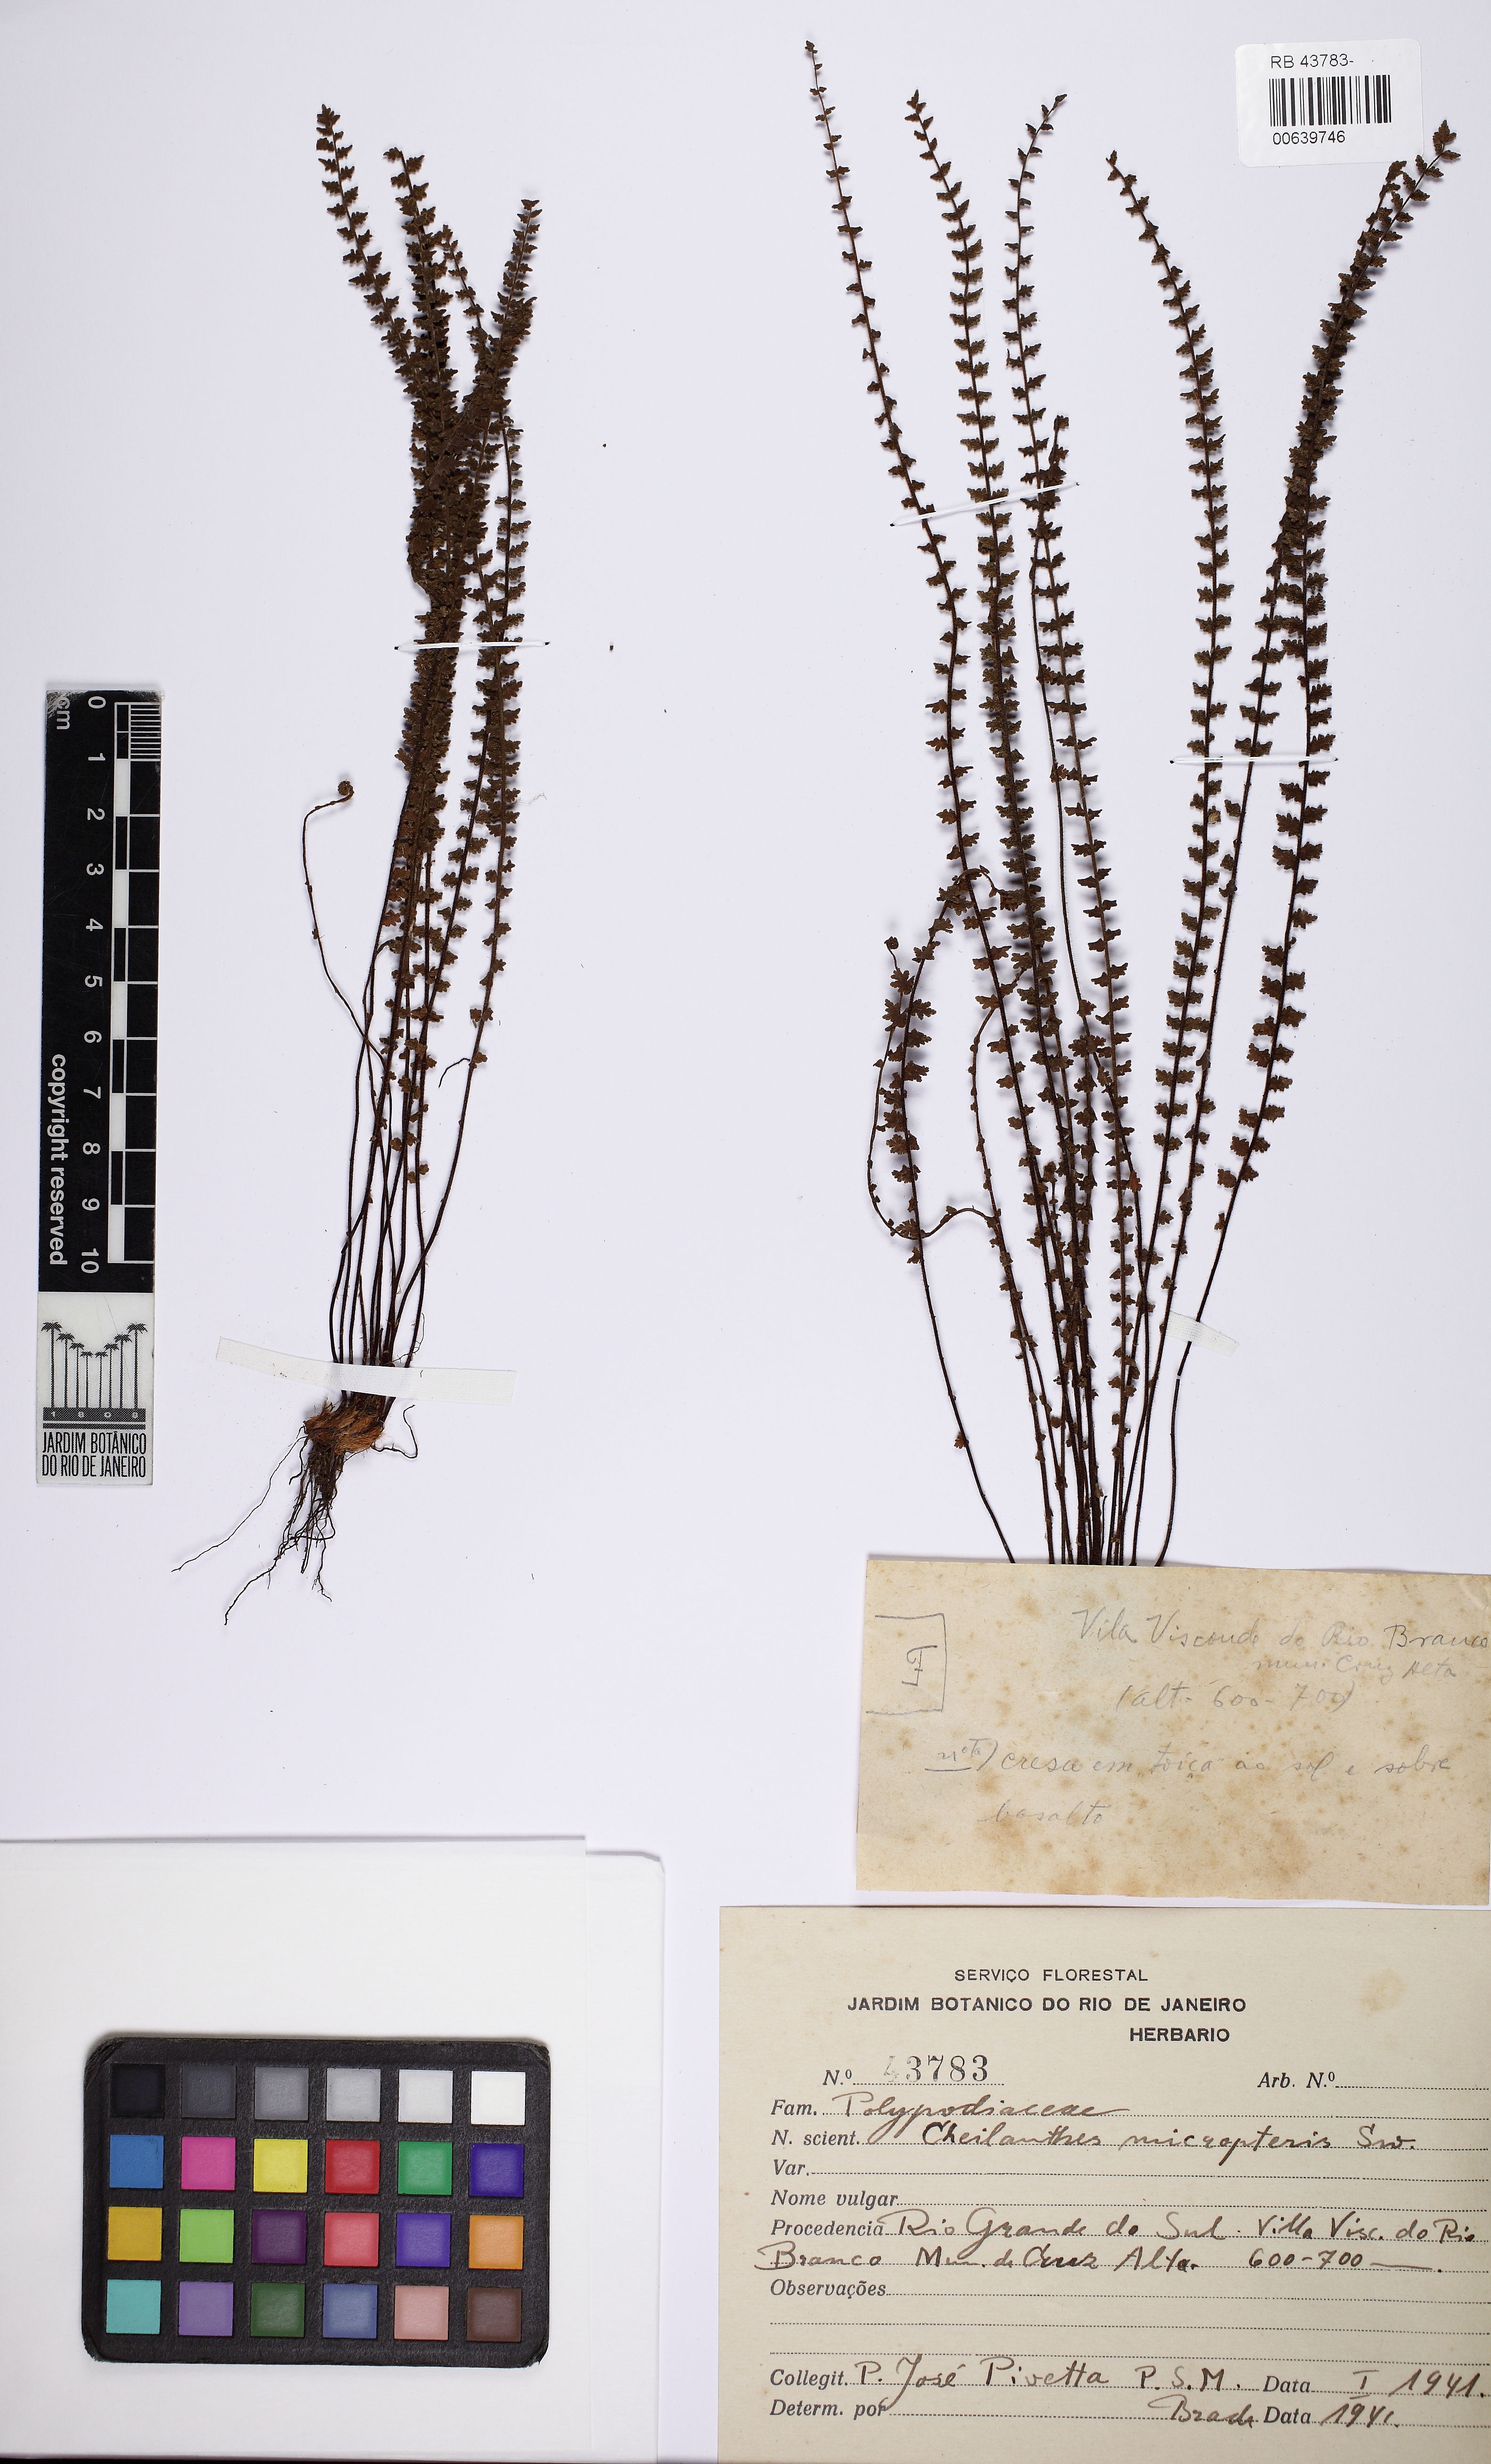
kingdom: Plantae
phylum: Tracheophyta
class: Polypodiopsida
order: Polypodiales
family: Pteridaceae
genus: Cheilanthes
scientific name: Cheilanthes micropteris
